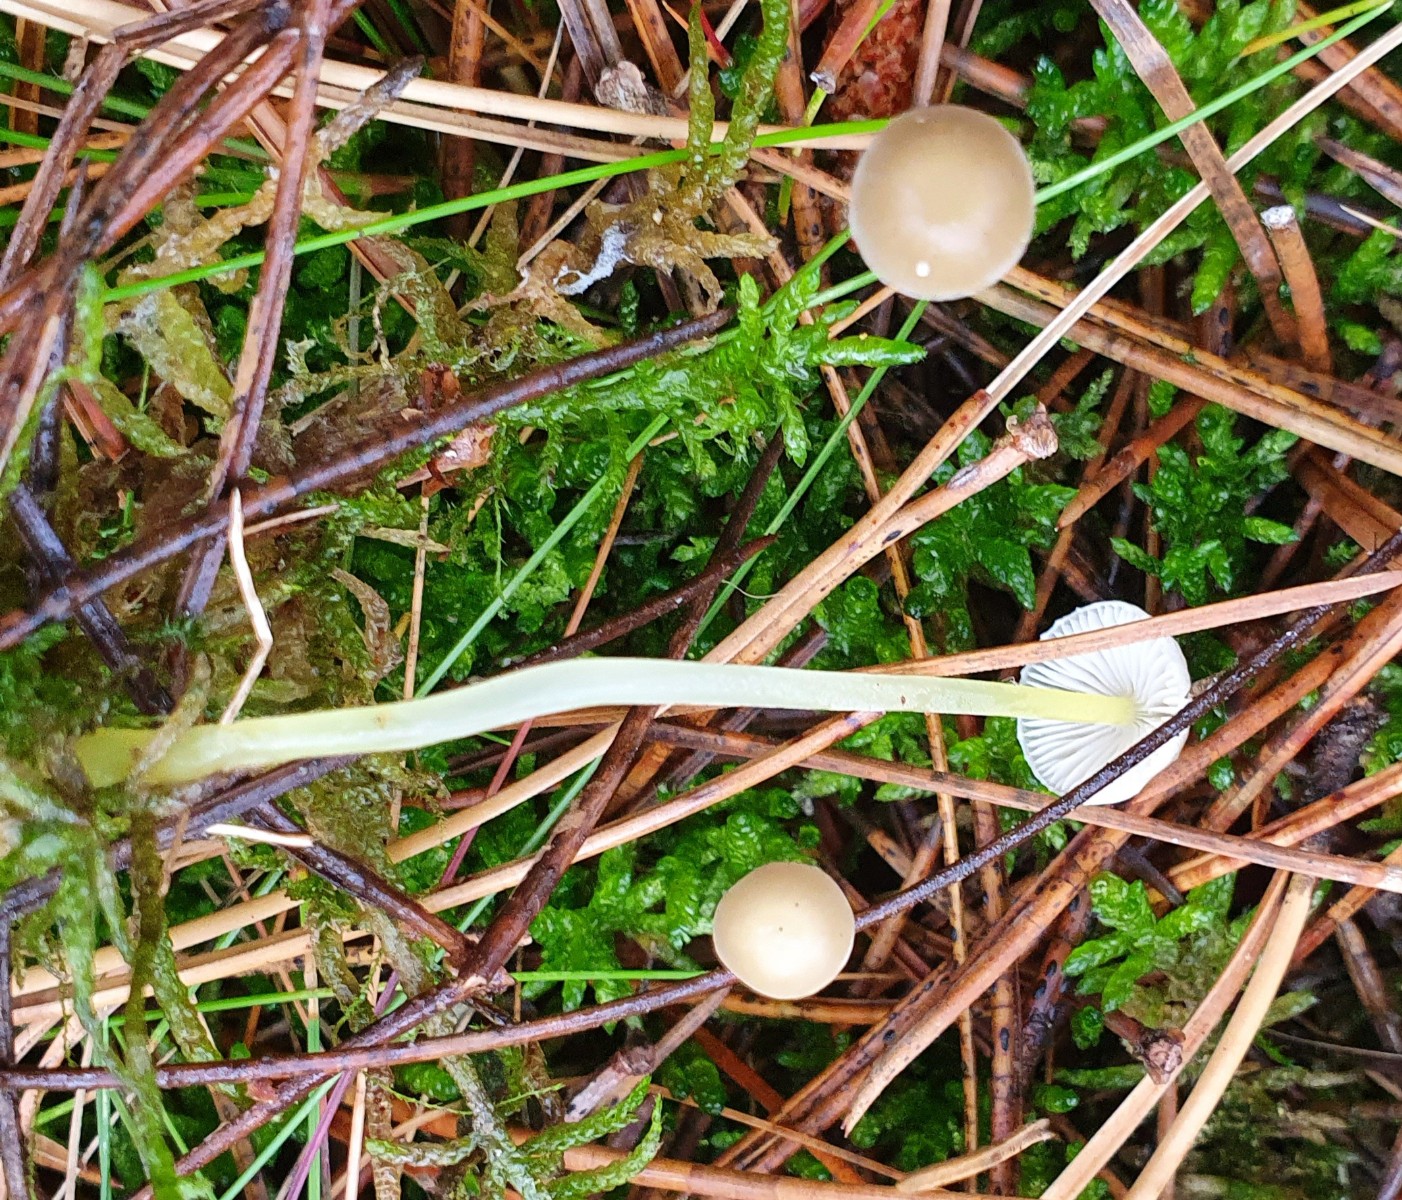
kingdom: Fungi
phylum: Basidiomycota
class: Agaricomycetes
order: Agaricales
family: Mycenaceae
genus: Mycena
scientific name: Mycena epipterygia
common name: gulstokket huesvamp
